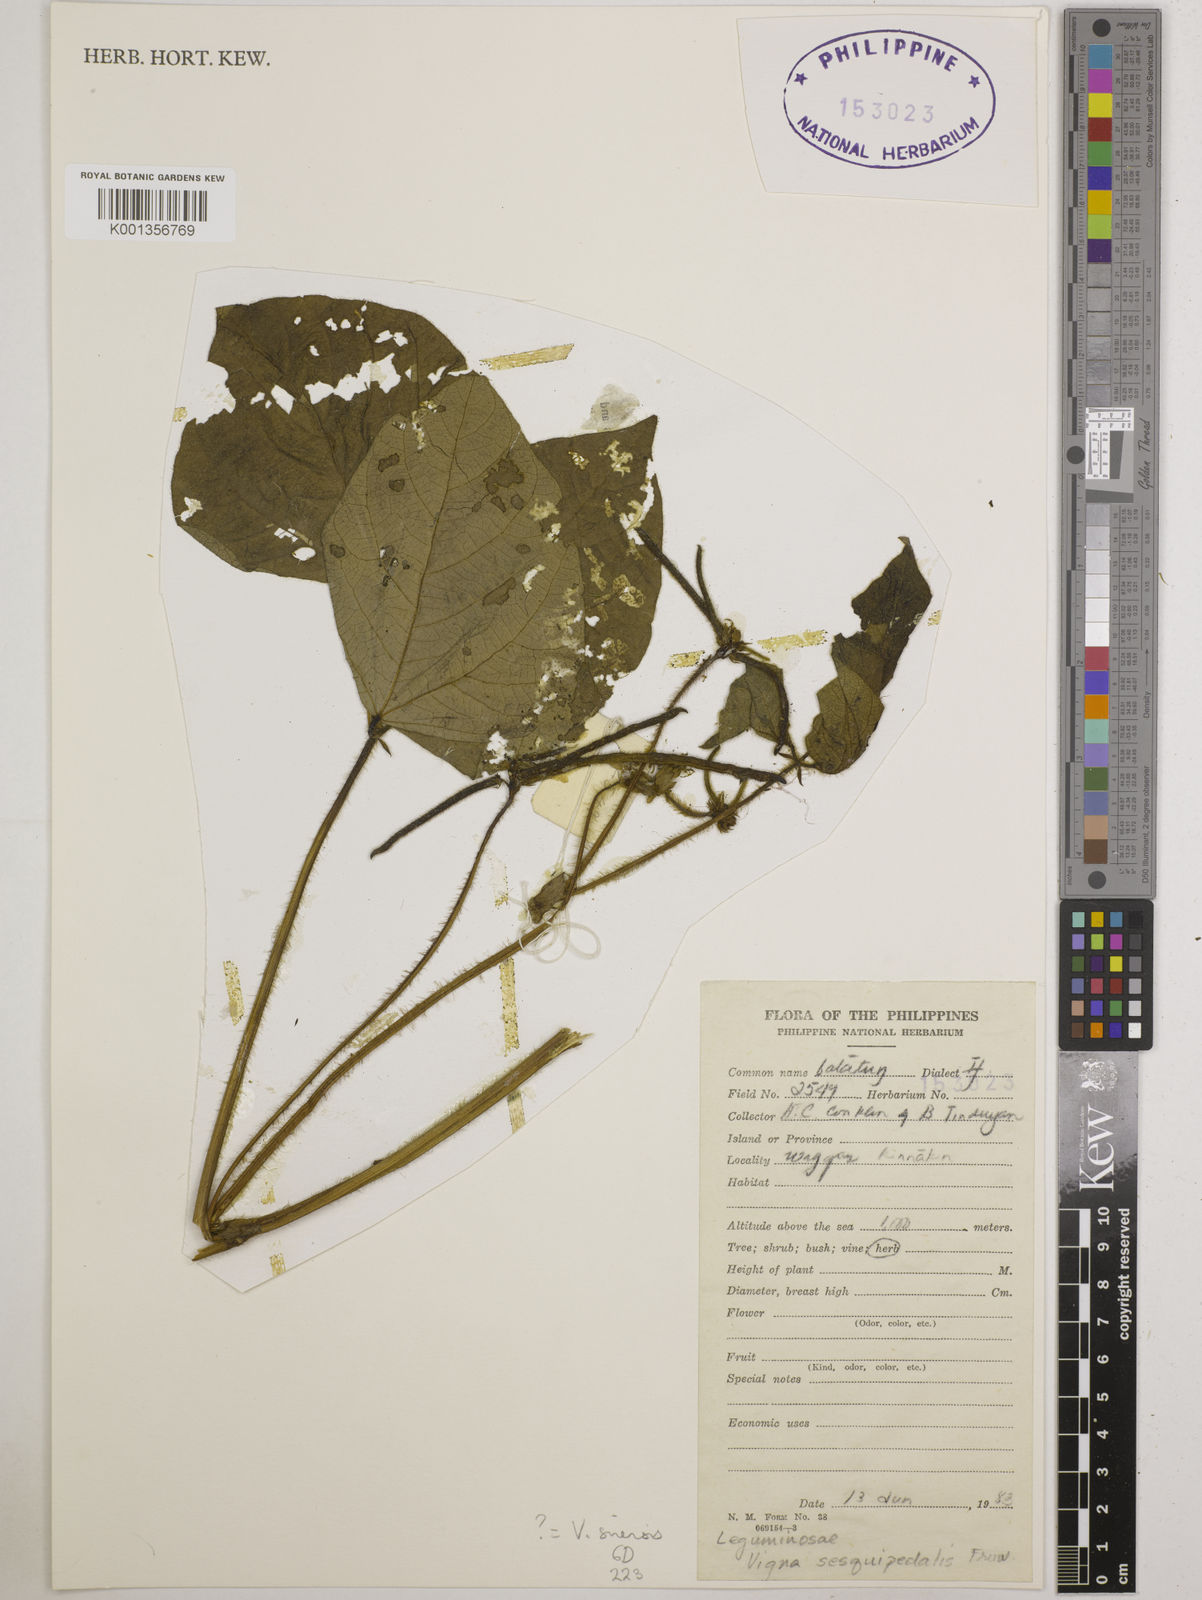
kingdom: Plantae
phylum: Tracheophyta
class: Magnoliopsida
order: Fabales
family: Fabaceae
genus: Vigna
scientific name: Vigna unguiculata
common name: Cowpea
